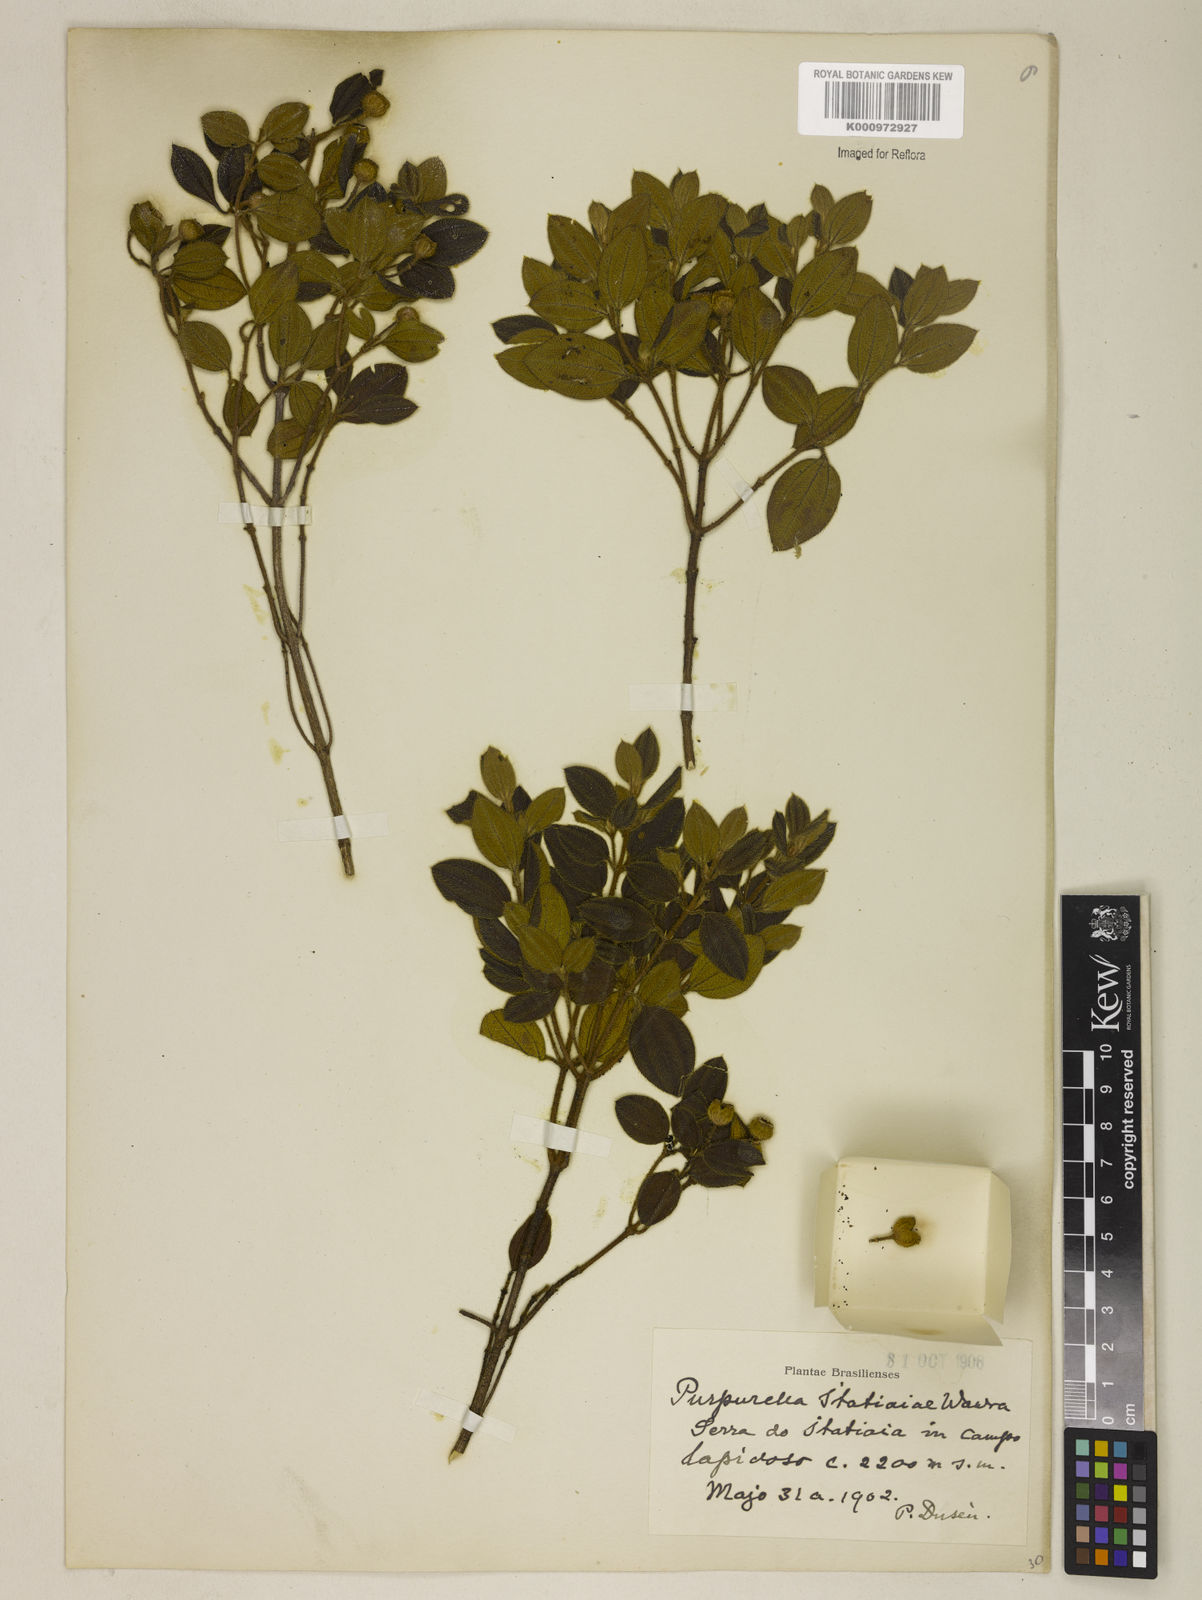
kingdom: Plantae
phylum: Tracheophyta
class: Magnoliopsida
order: Myrtales
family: Melastomataceae
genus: Pleroma
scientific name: Pleroma itatiaiae
